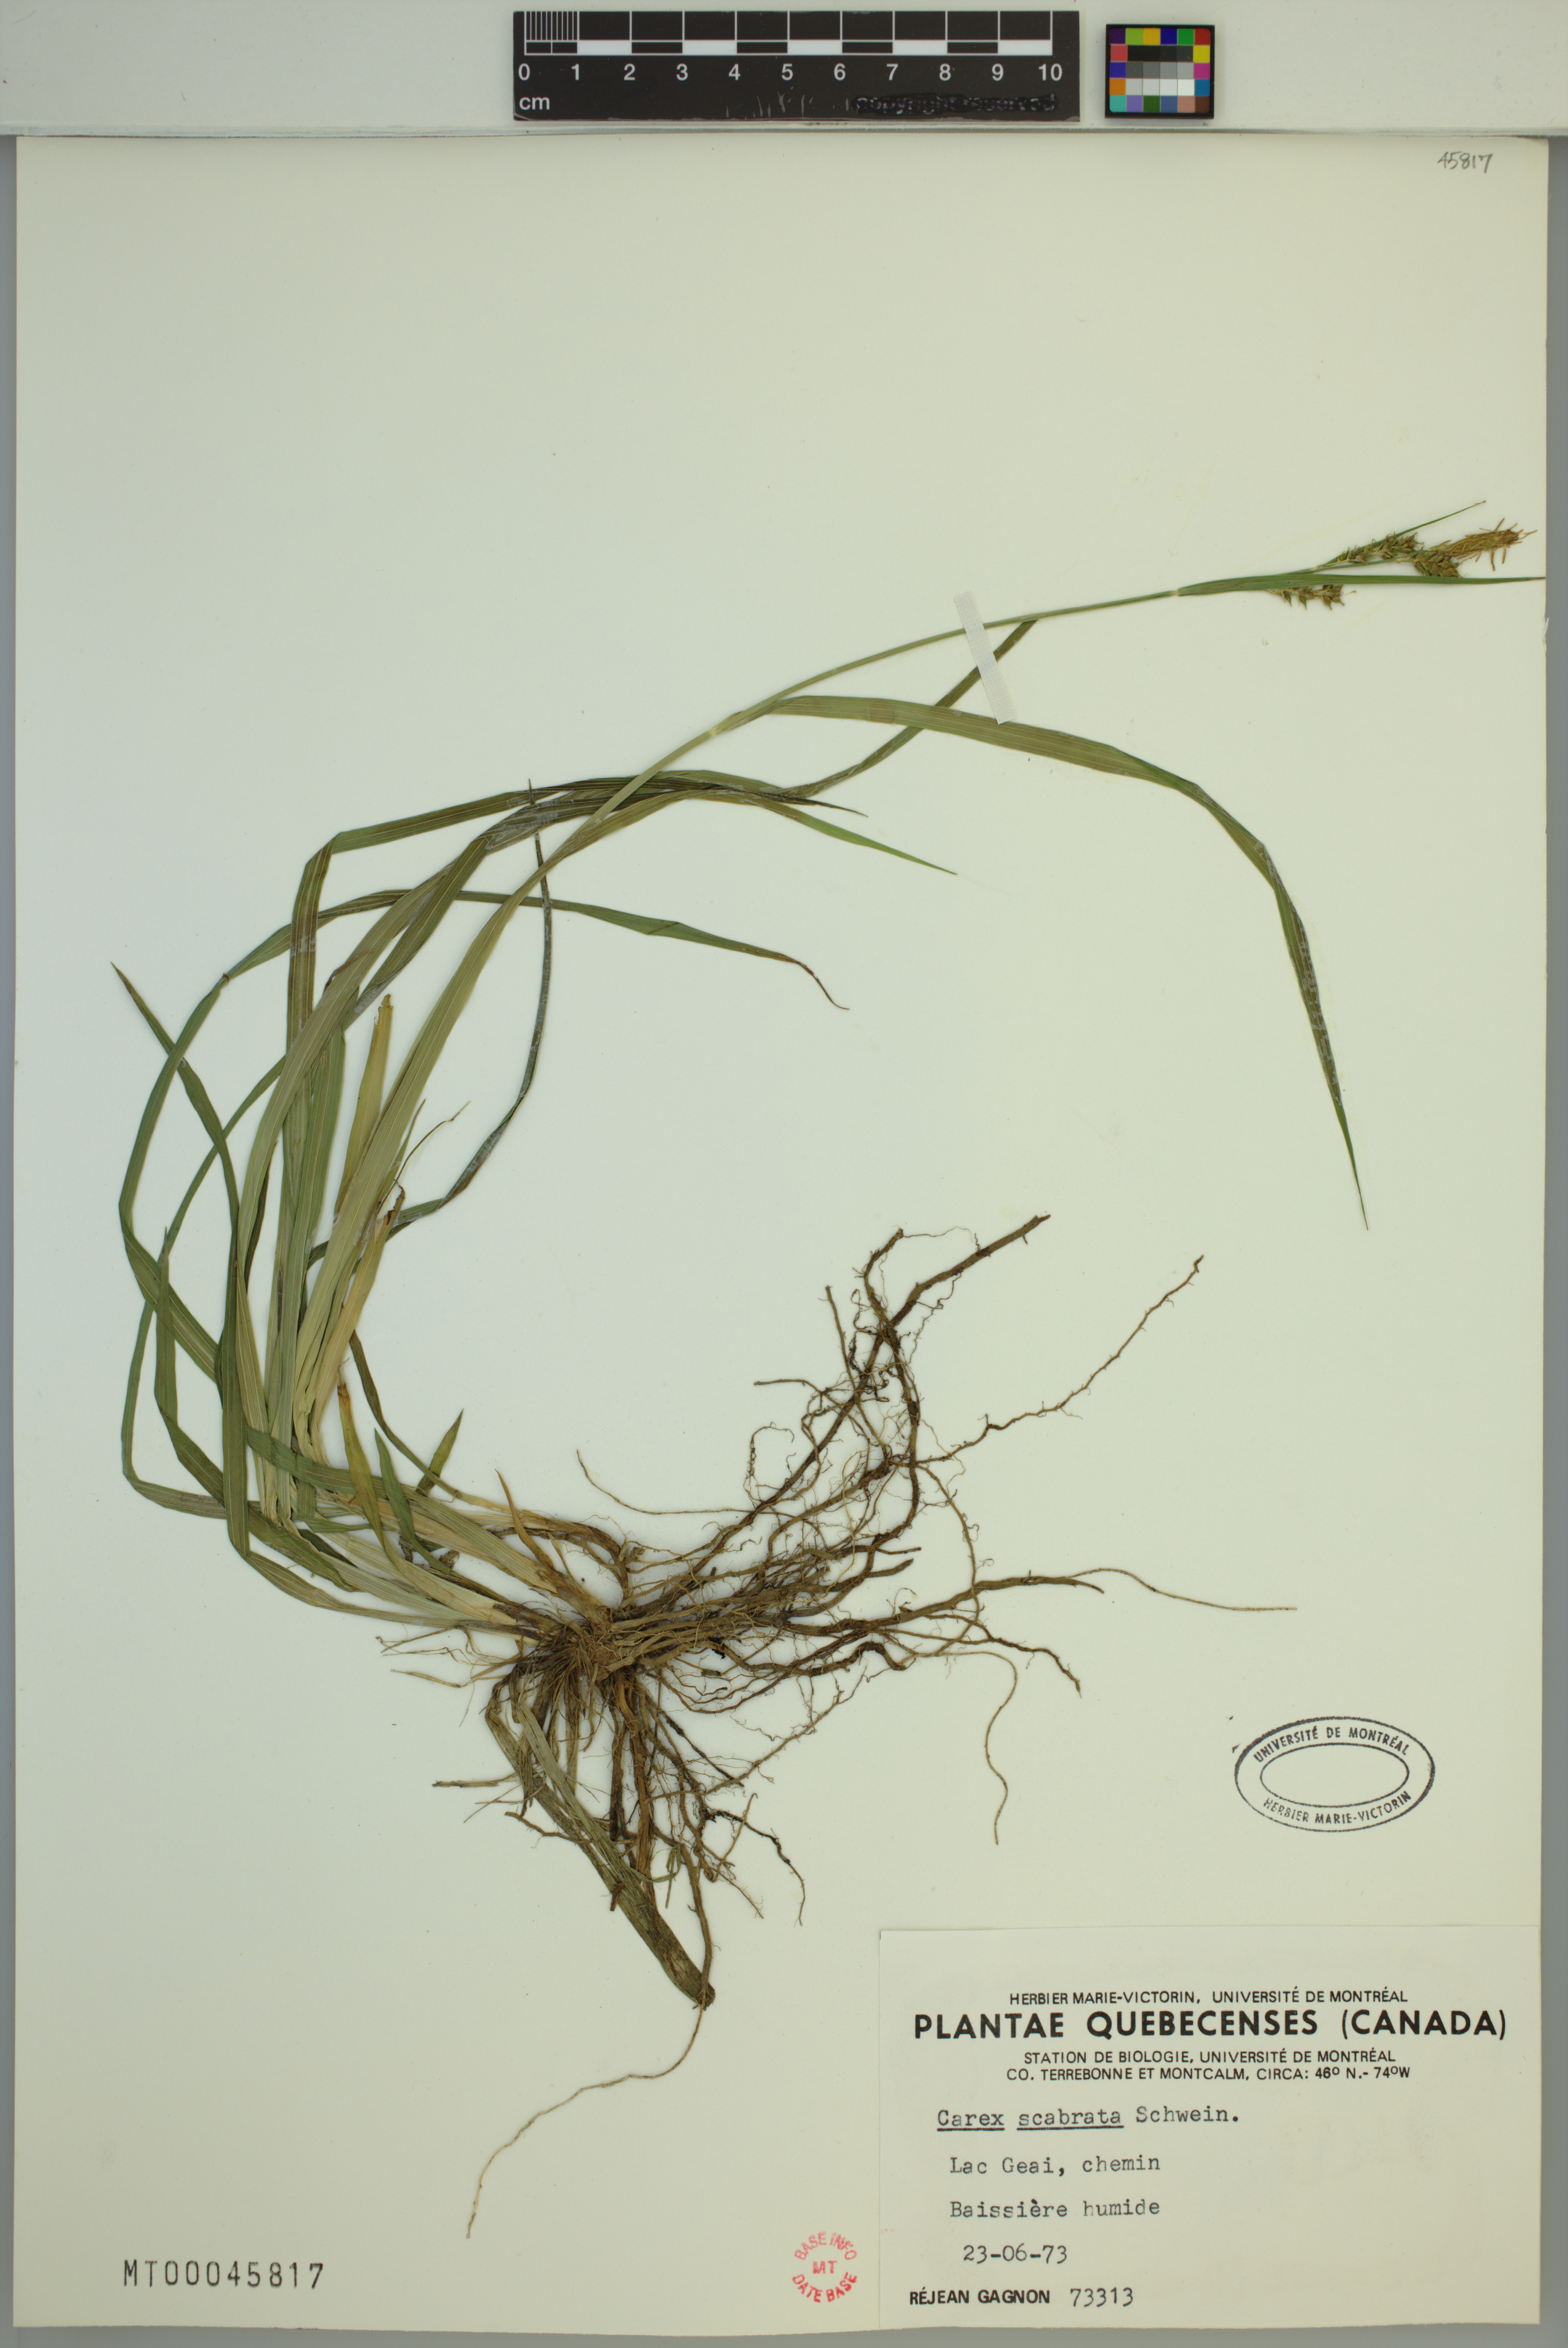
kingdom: Plantae
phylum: Tracheophyta
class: Liliopsida
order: Poales
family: Cyperaceae
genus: Carex
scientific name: Carex scabrata
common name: Eastern rough sedge
